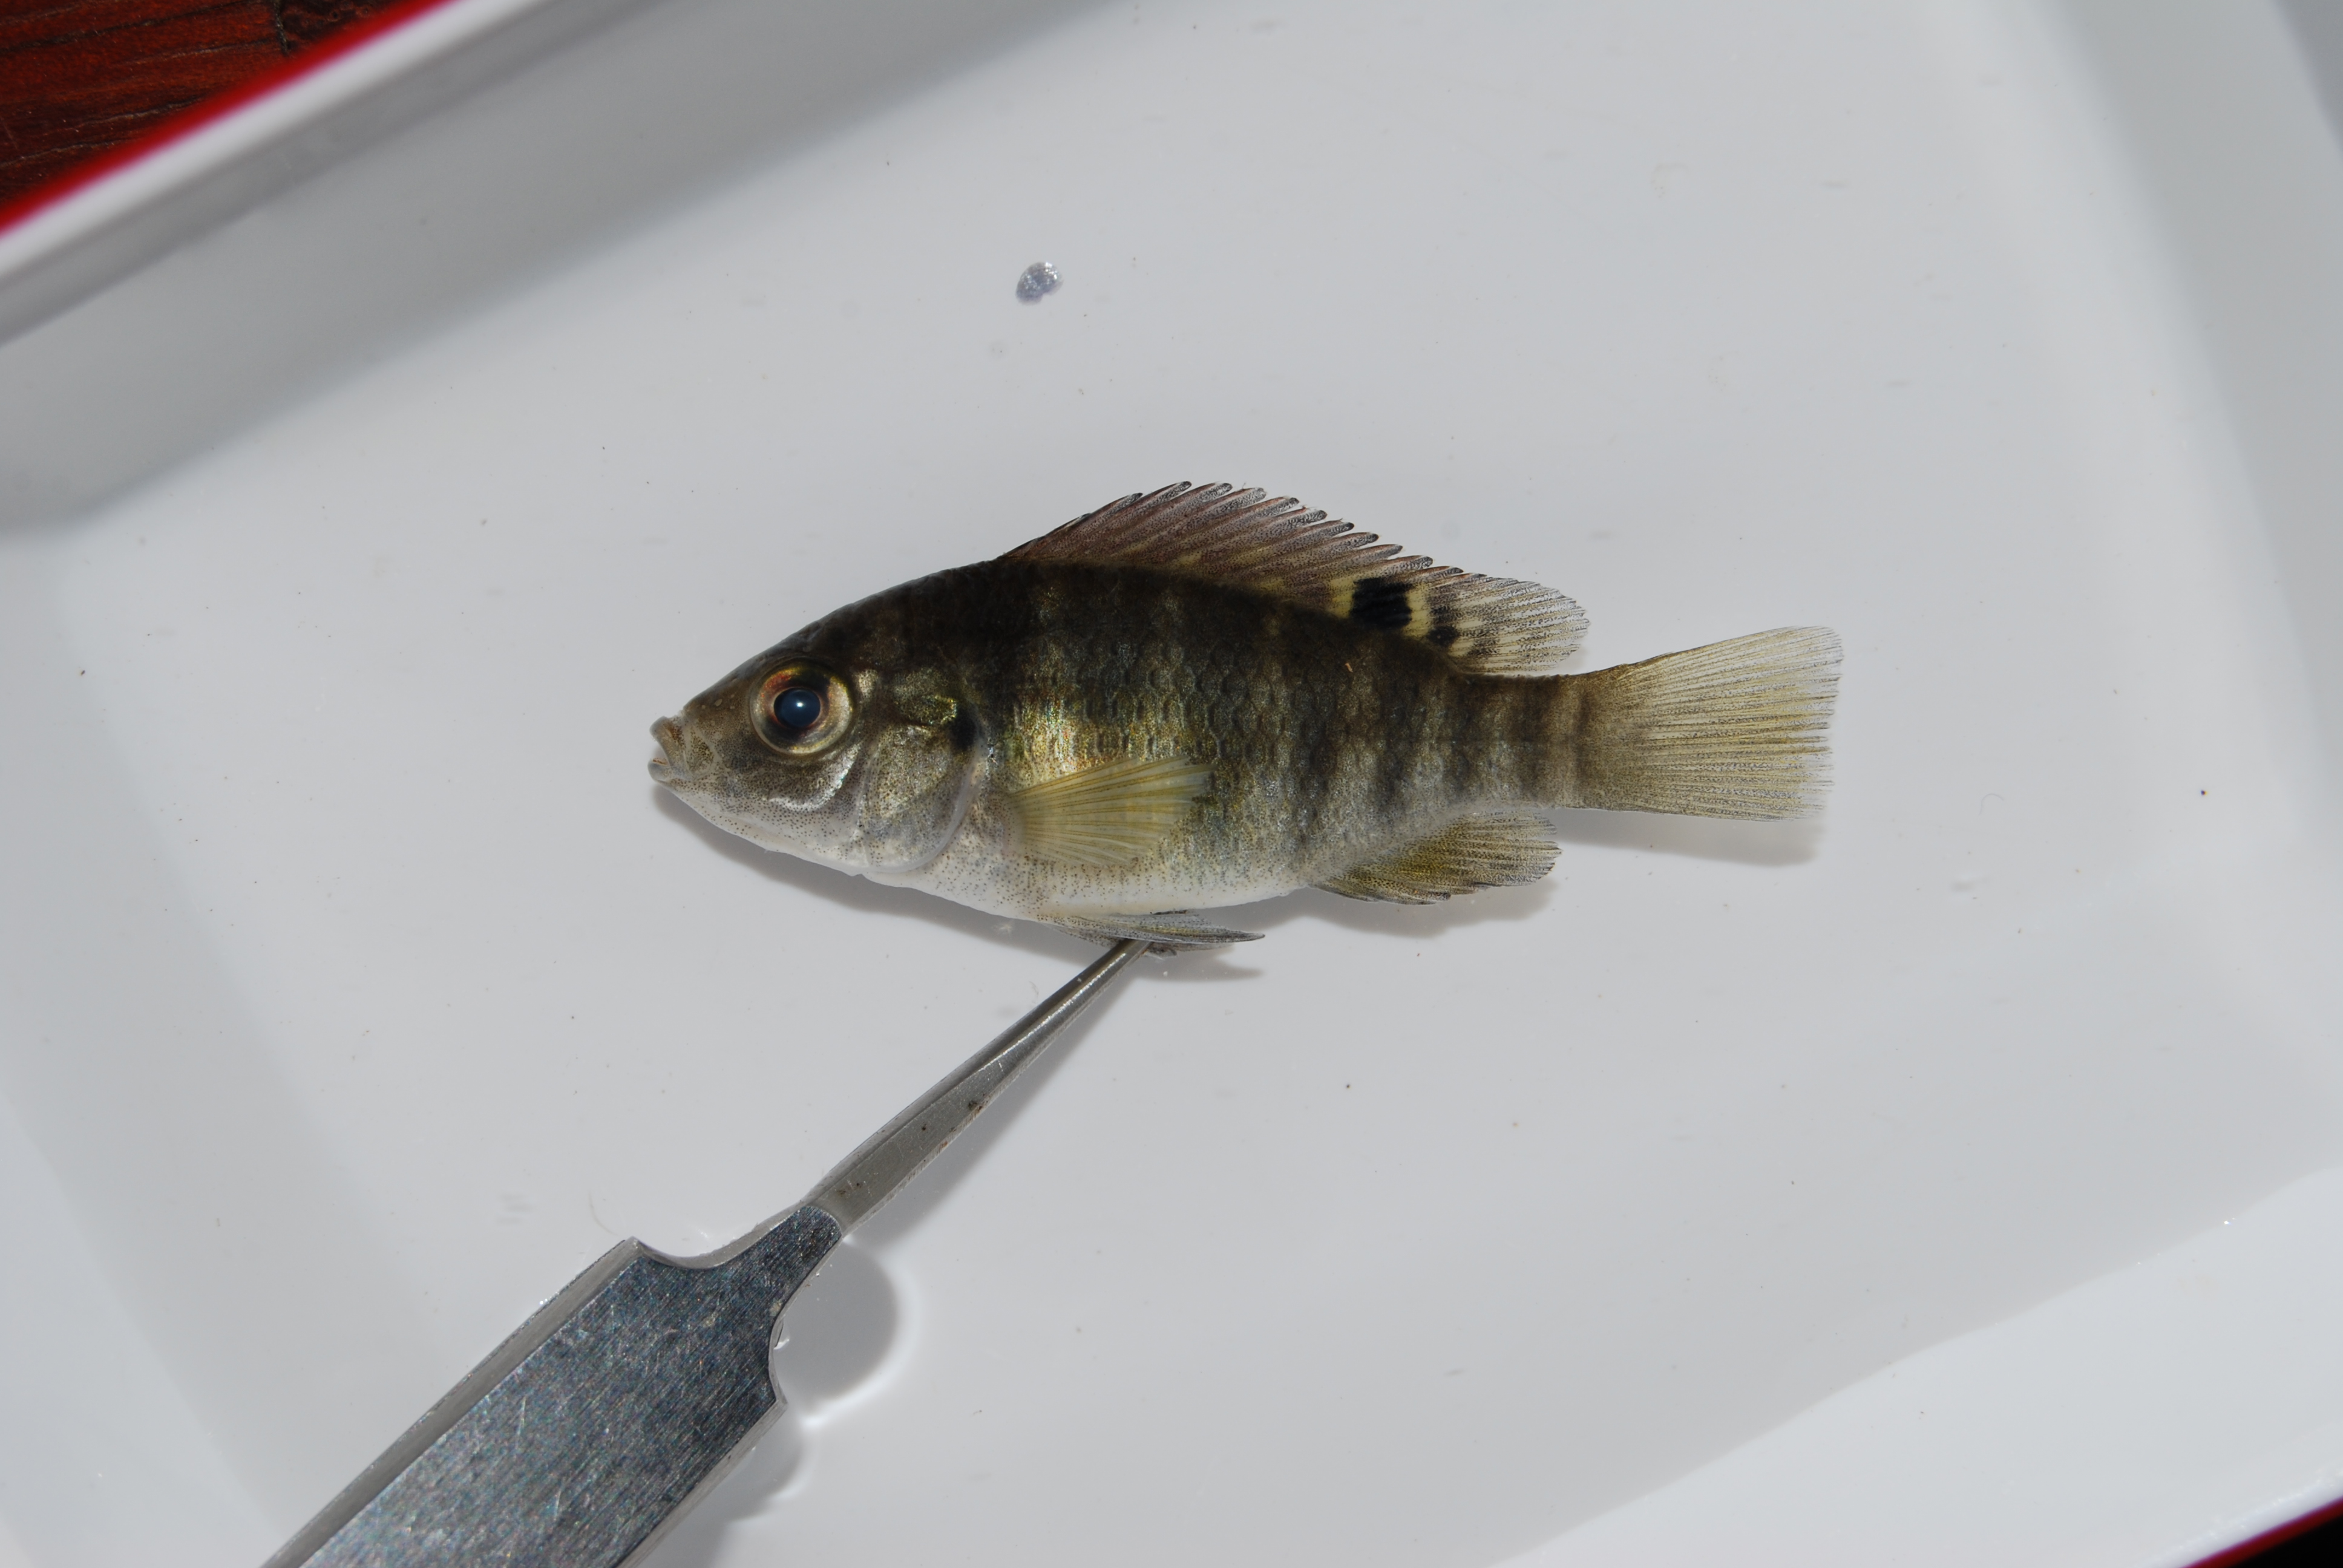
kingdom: Animalia
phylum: Chordata
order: Perciformes
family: Cichlidae
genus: Tilapia
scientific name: Tilapia sparrmanii
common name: Banded tilapia
